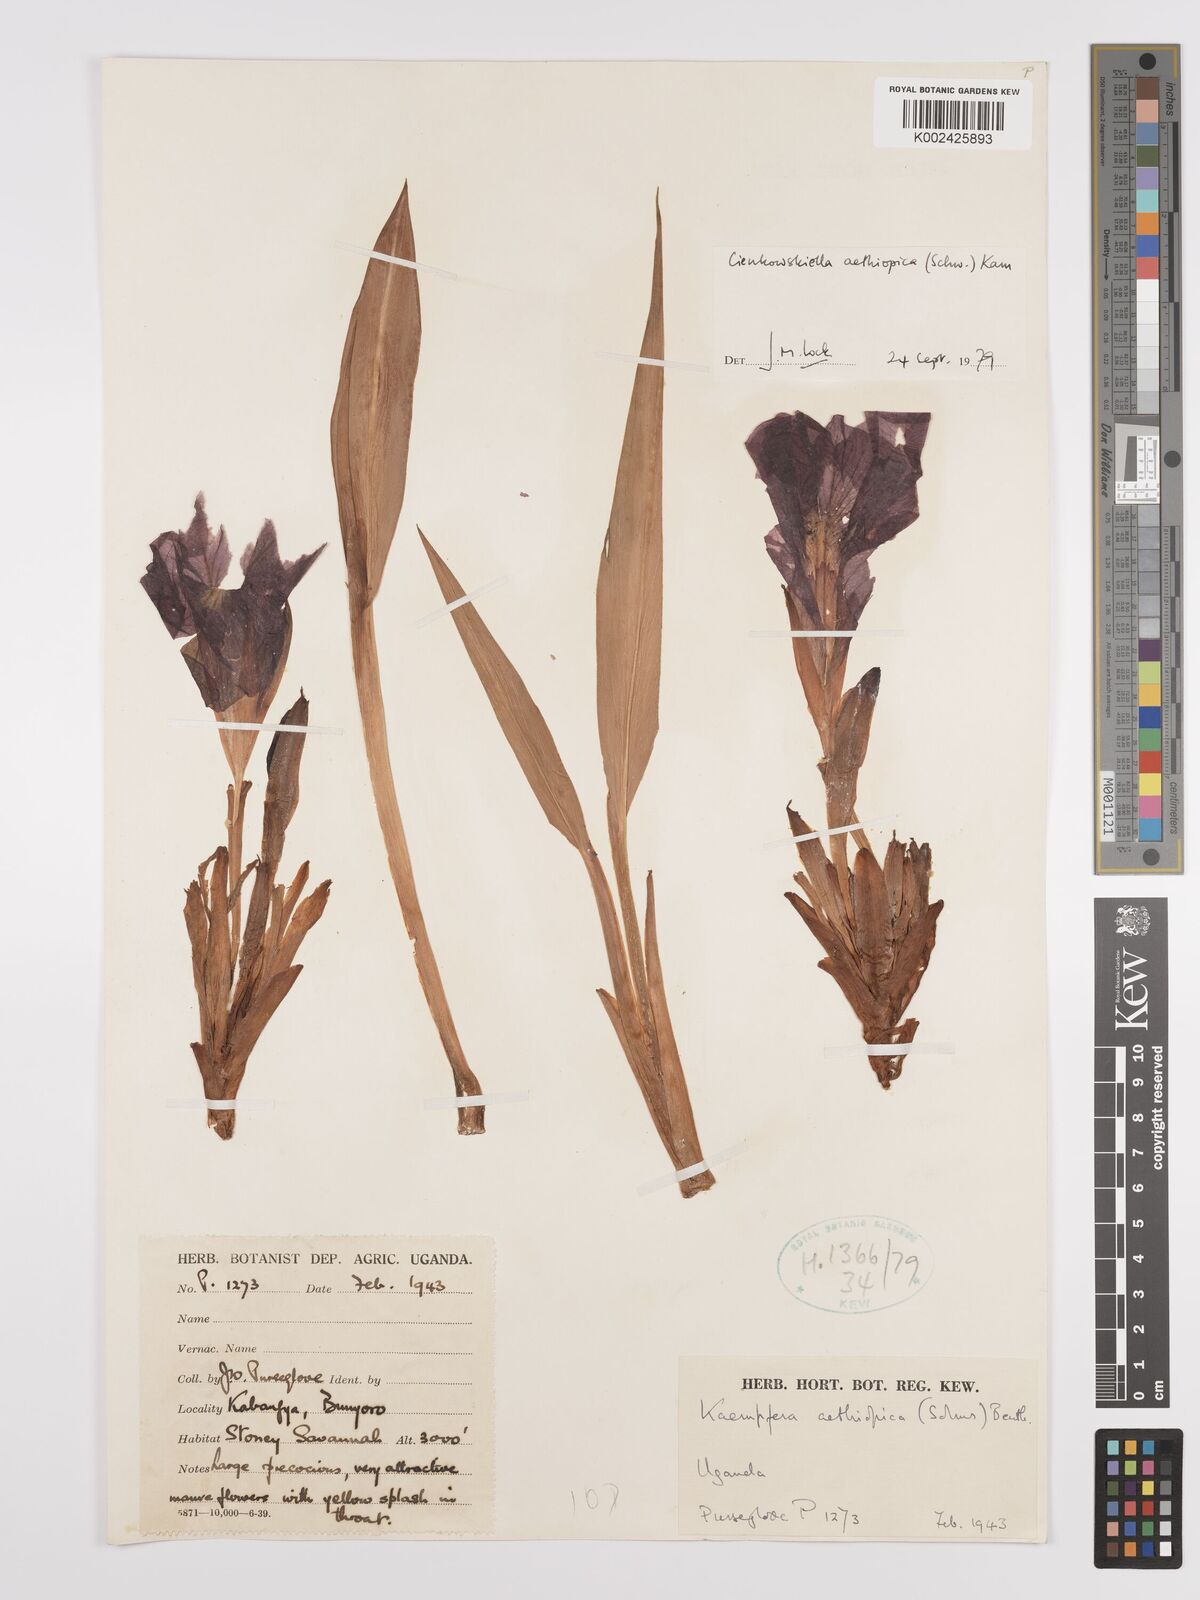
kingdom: Plantae
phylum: Tracheophyta
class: Liliopsida
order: Zingiberales
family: Zingiberaceae
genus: Siphonochilus
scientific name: Siphonochilus aethiopicus
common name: African-ginger
